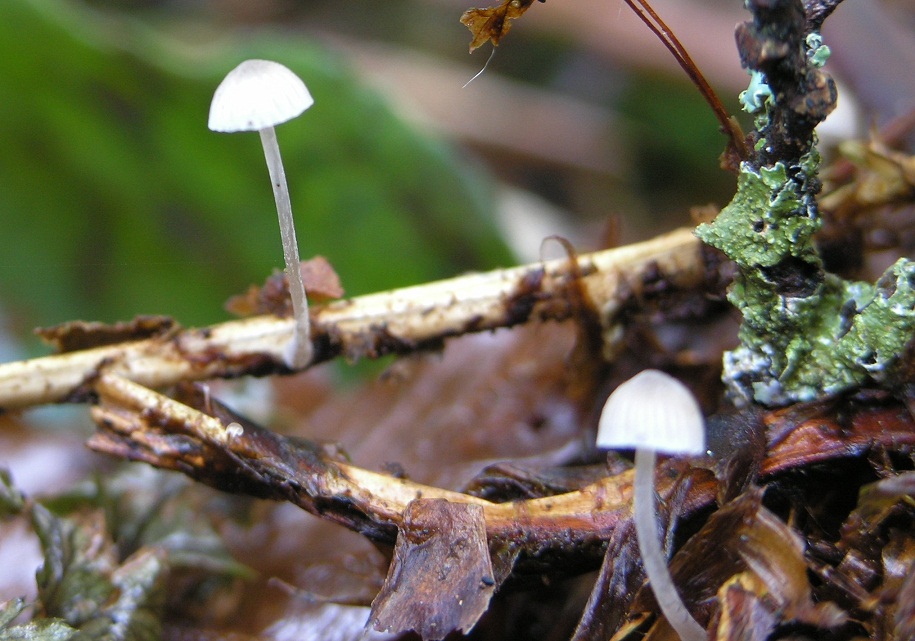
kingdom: Fungi
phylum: Basidiomycota
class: Agaricomycetes
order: Agaricales
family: Mycenaceae
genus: Mycena
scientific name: Mycena cinerella
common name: mel-huesvamp
